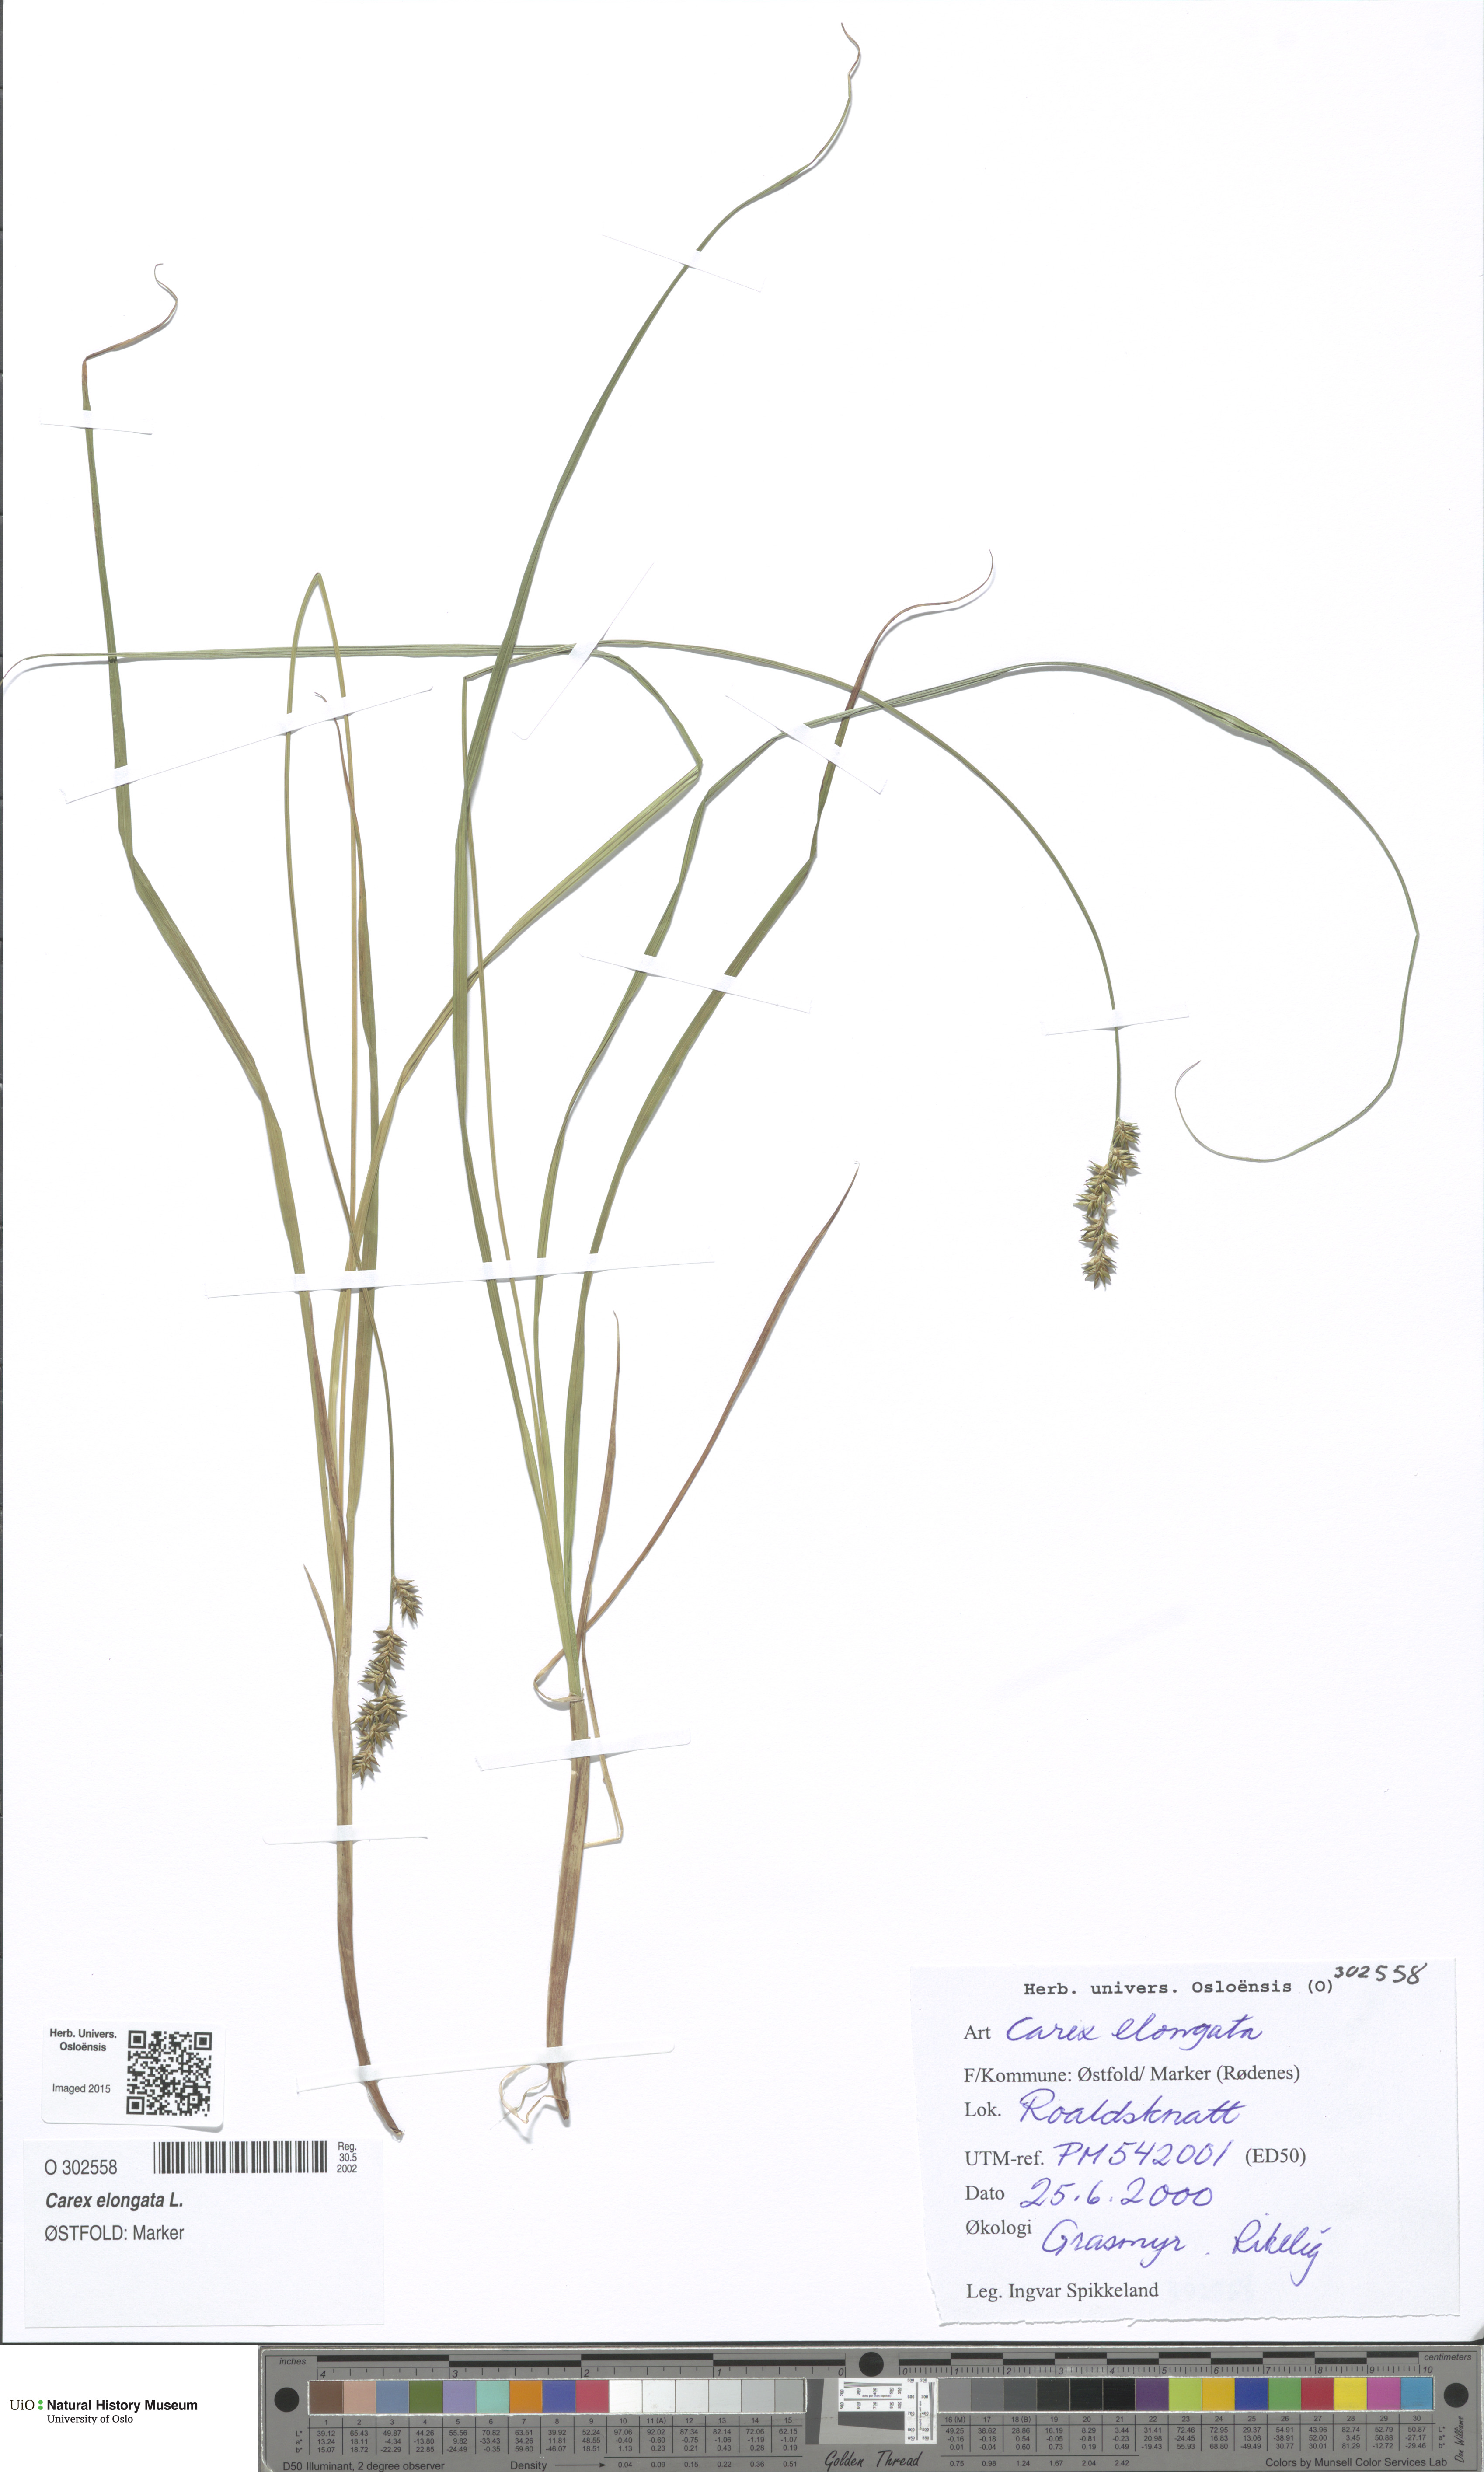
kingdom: Plantae
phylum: Tracheophyta
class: Liliopsida
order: Poales
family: Cyperaceae
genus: Carex
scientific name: Carex elongata
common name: Elongated sedge
